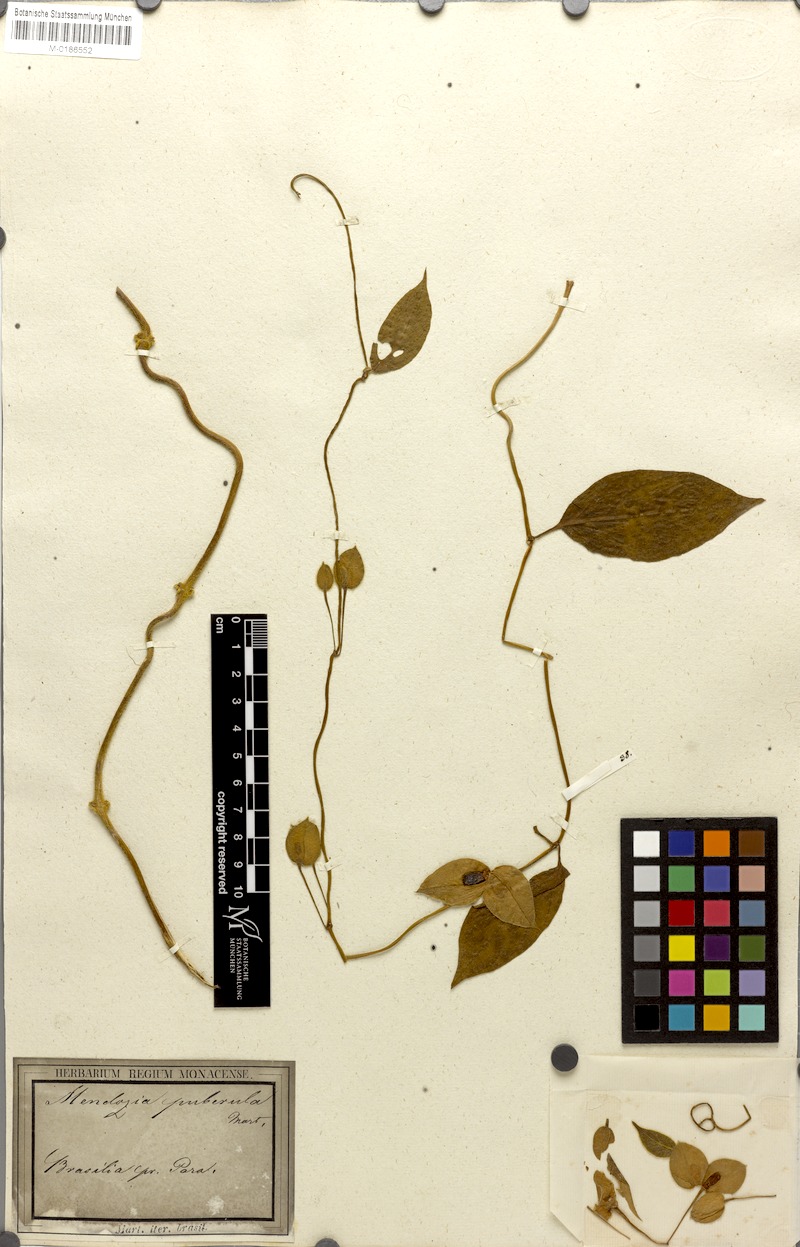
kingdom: Plantae
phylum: Tracheophyta
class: Magnoliopsida
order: Lamiales
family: Acanthaceae
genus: Mendoncia
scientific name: Mendoncia puberula
